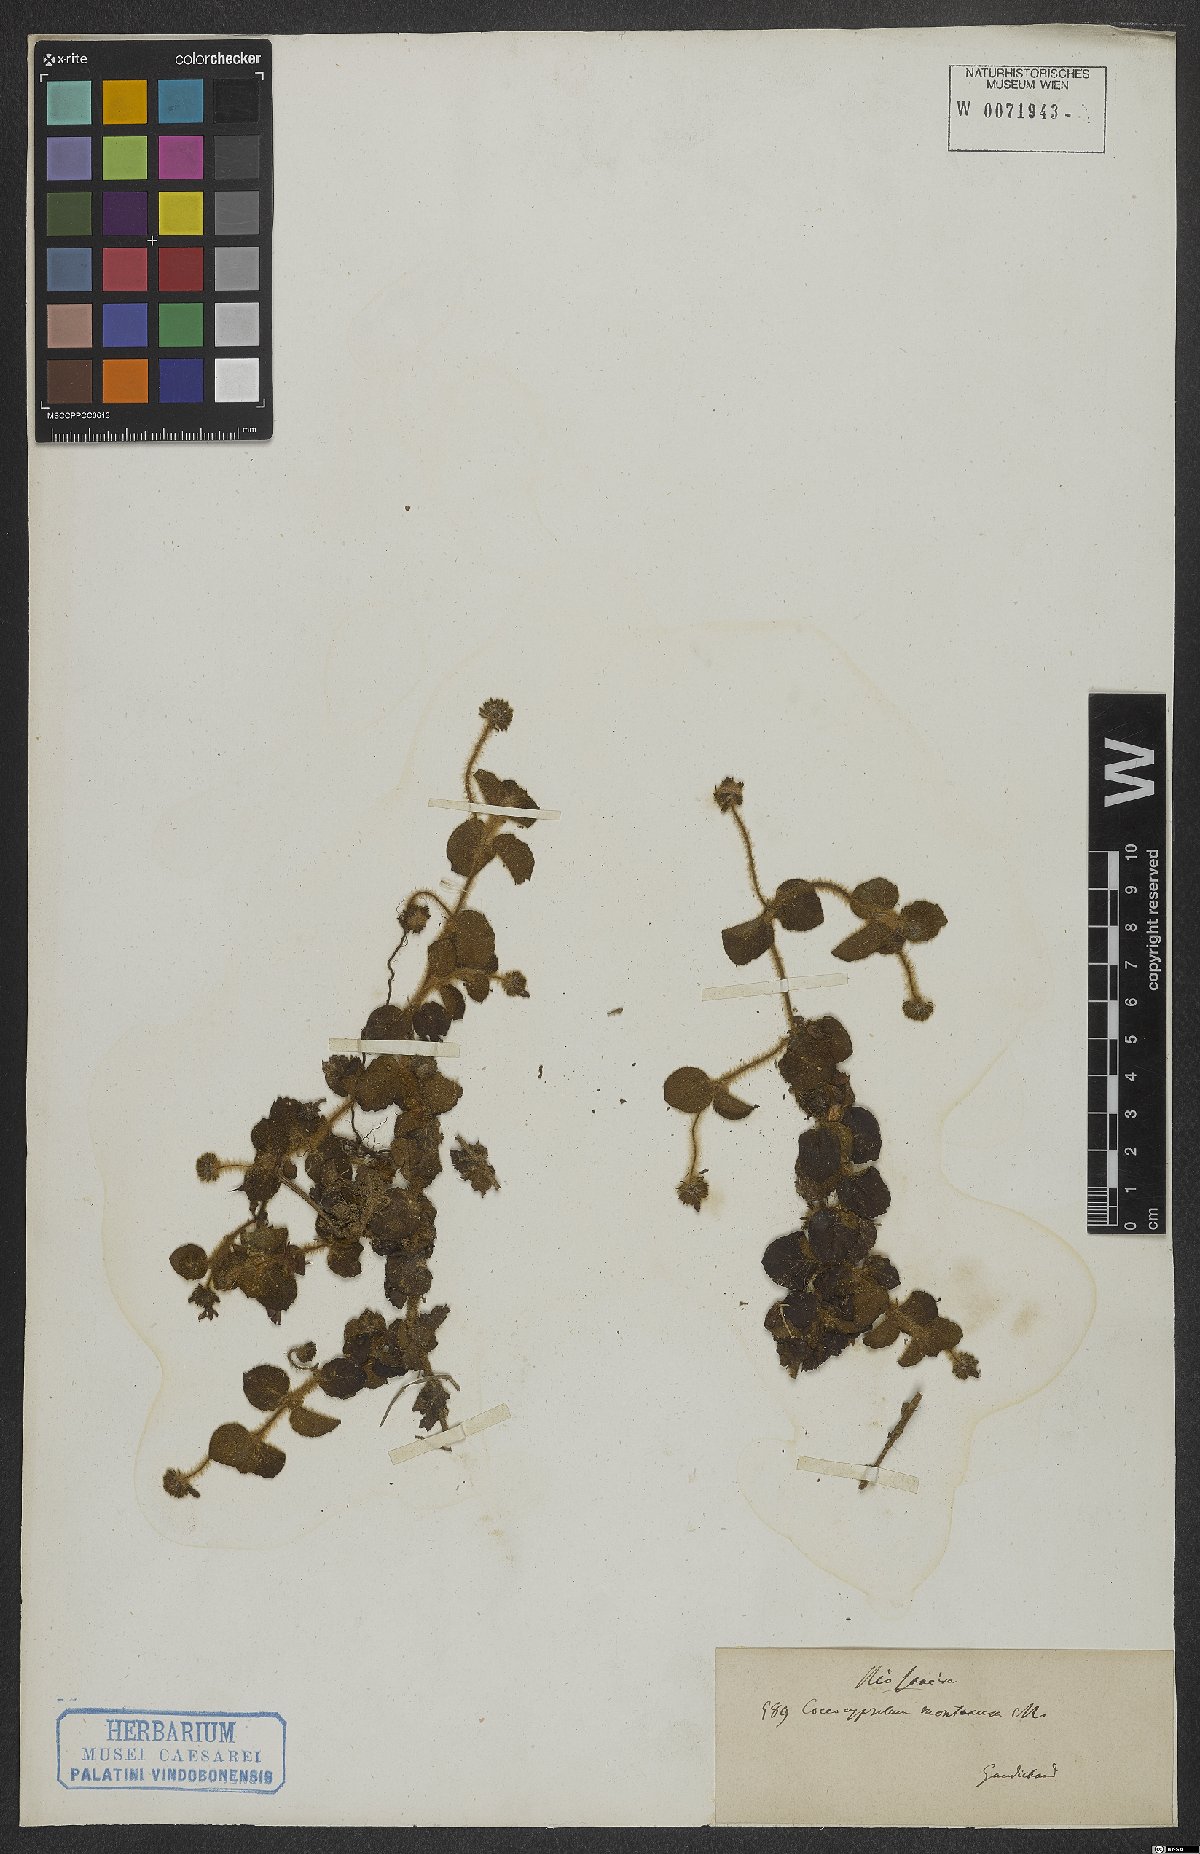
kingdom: Plantae
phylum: Tracheophyta
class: Magnoliopsida
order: Gentianales
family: Rubiaceae
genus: Coccocypselum
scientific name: Coccocypselum erythrocephalum
